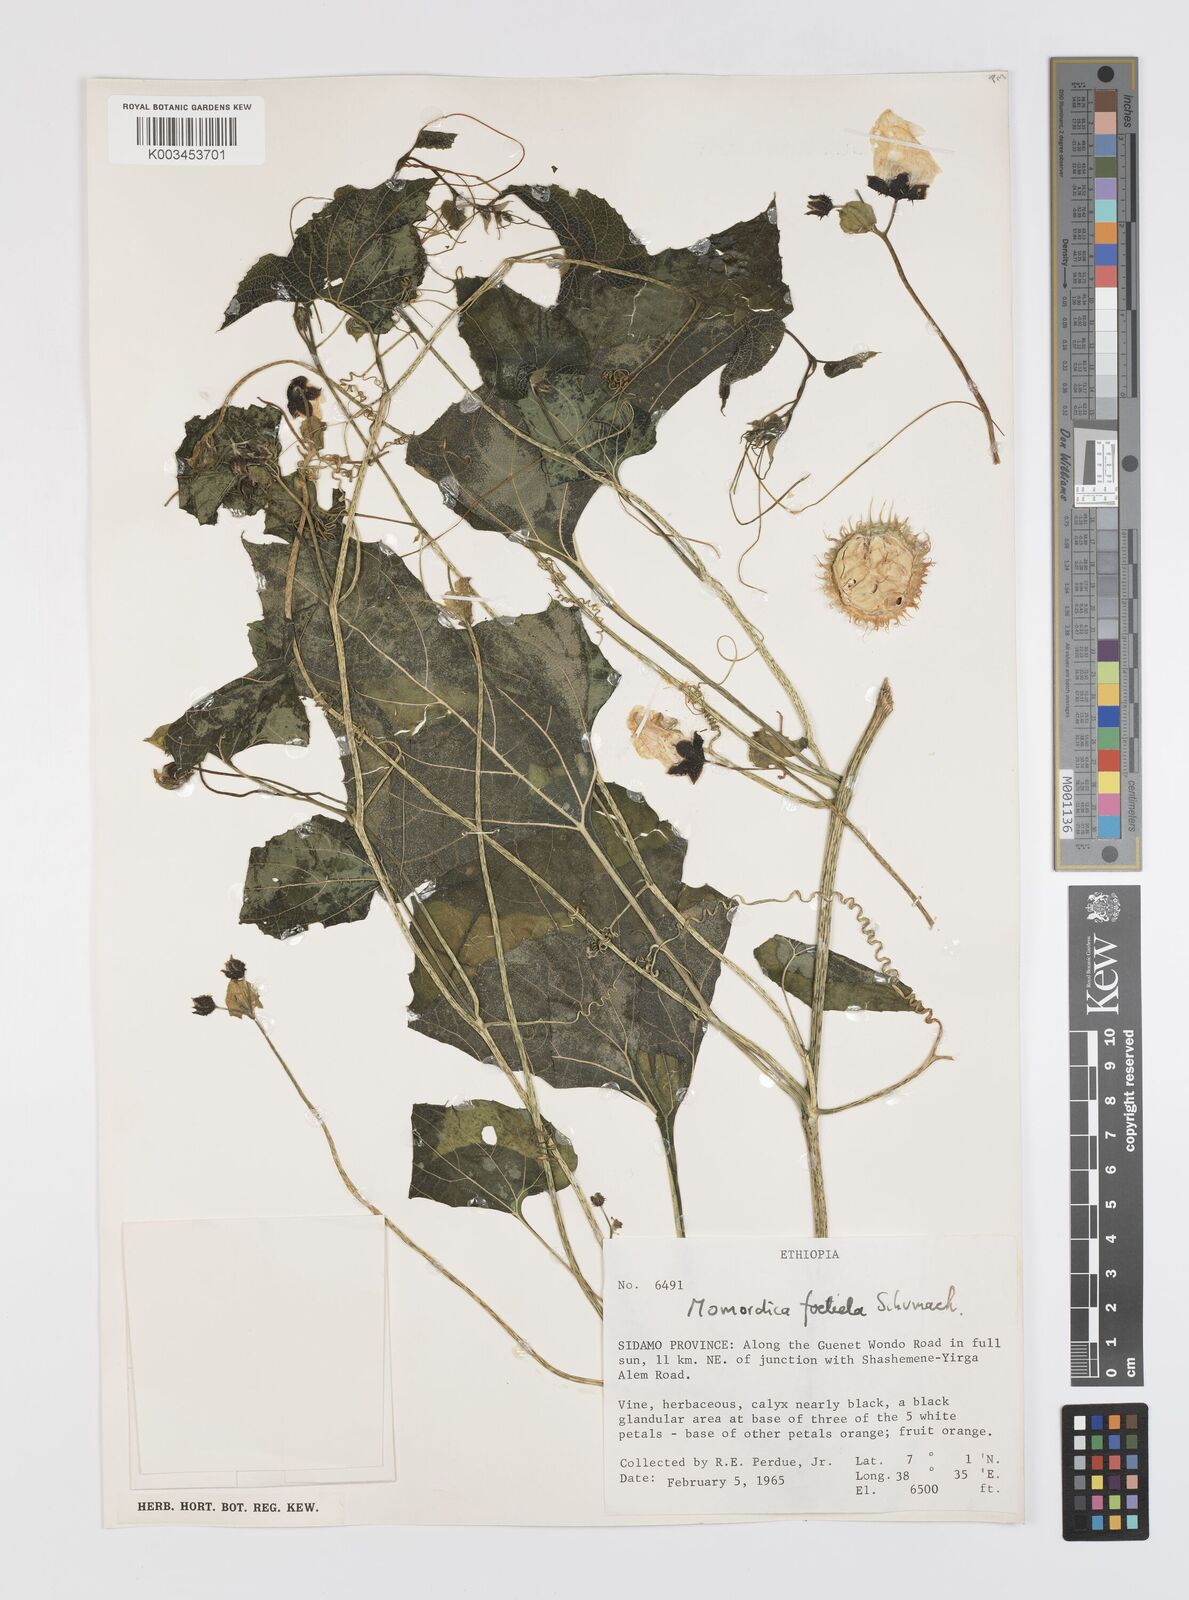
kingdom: Plantae
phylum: Tracheophyta
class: Magnoliopsida
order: Cucurbitales
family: Cucurbitaceae
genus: Momordica
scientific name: Momordica foetida
